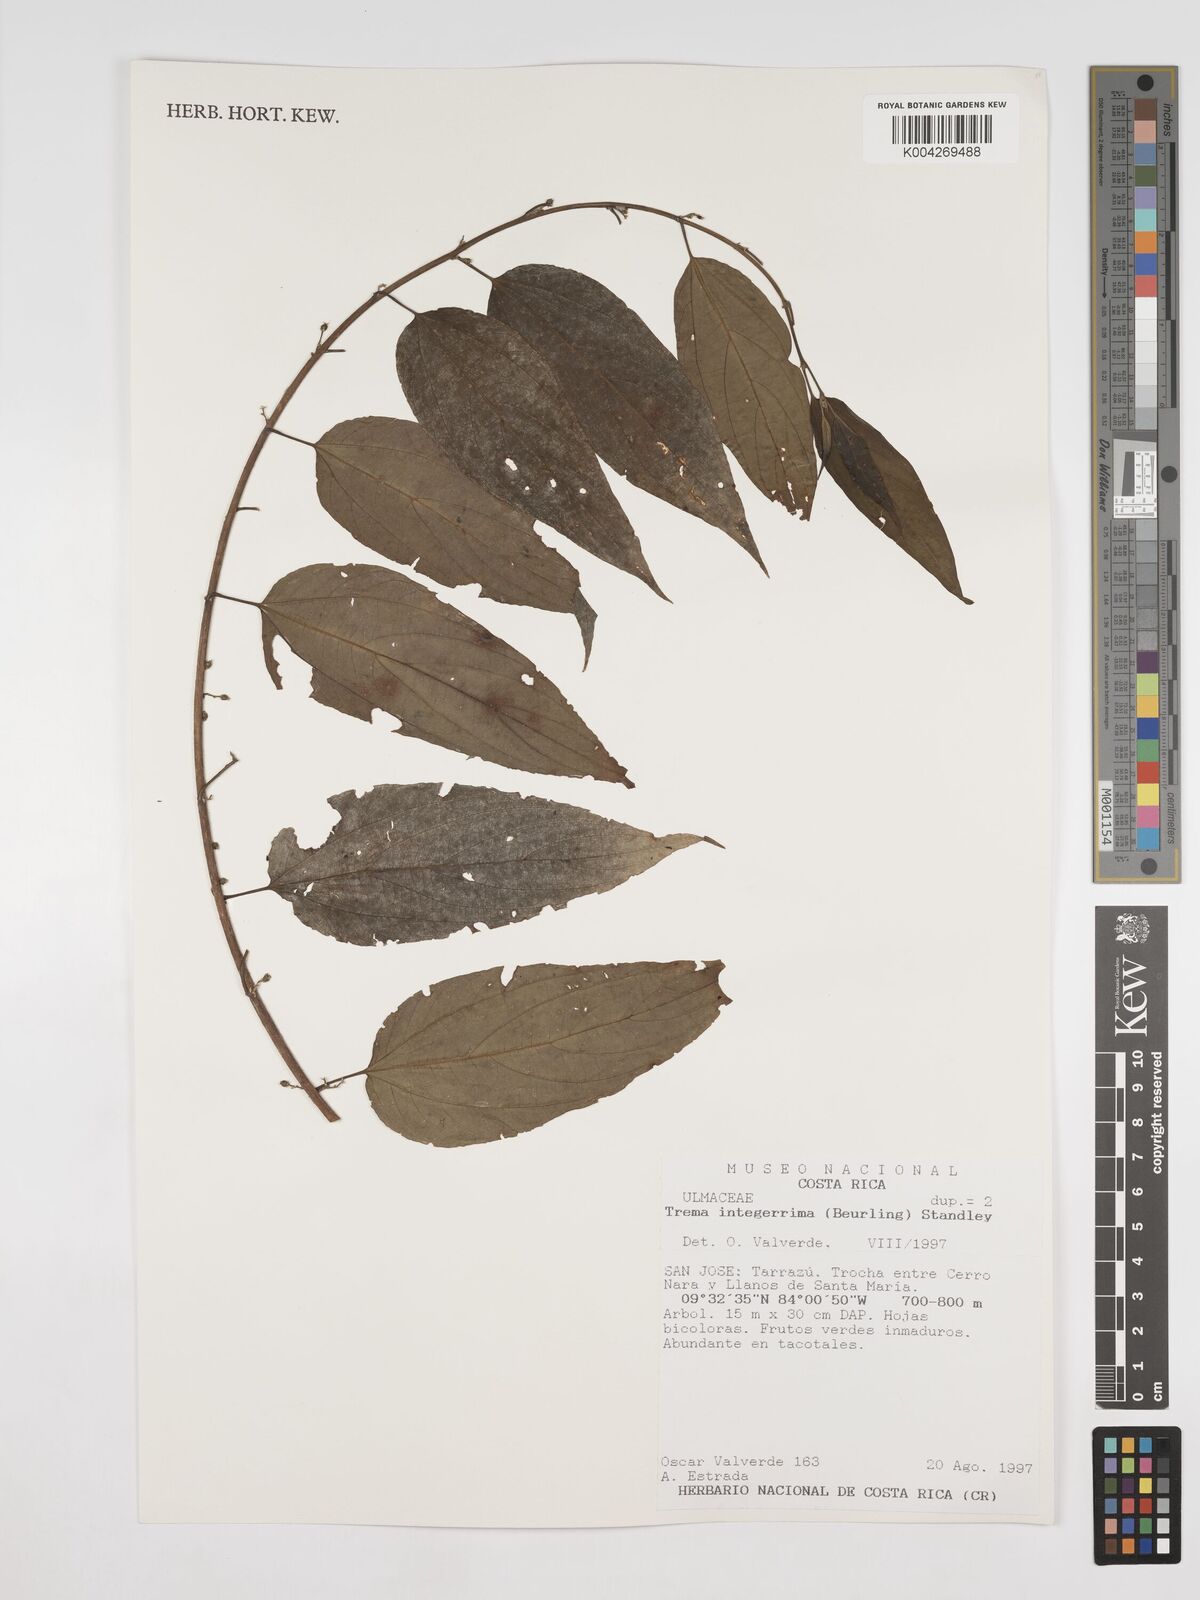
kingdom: Plantae
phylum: Tracheophyta
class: Magnoliopsida
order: Rosales
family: Cannabaceae
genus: Trema
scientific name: Trema integerrimum
